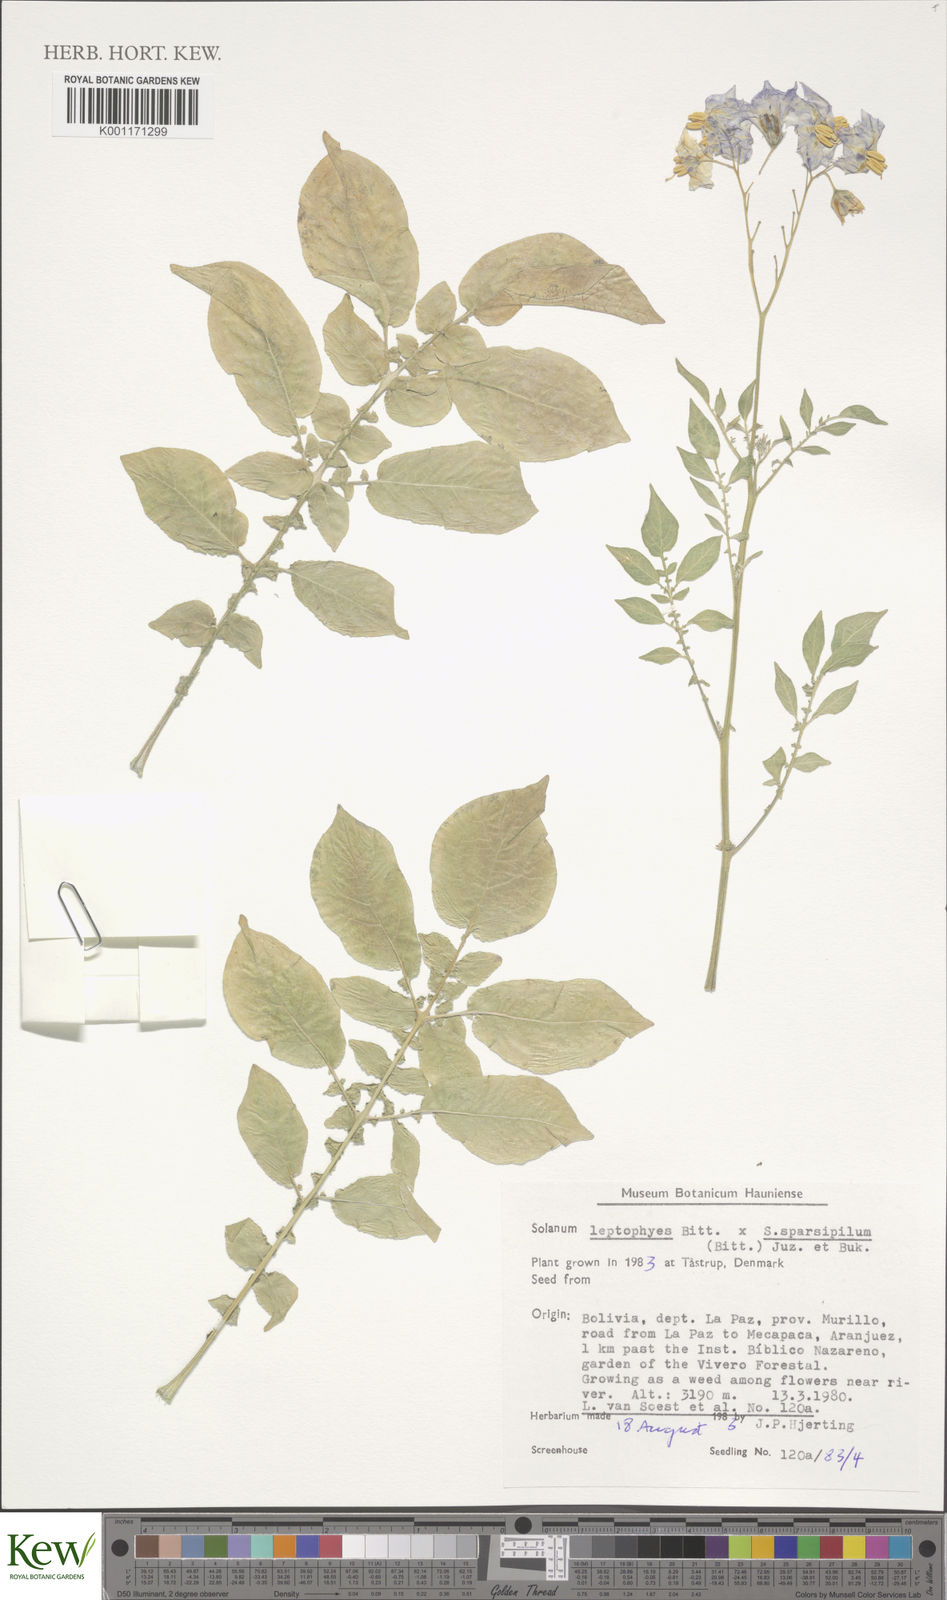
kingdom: Plantae
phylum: Tracheophyta
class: Magnoliopsida
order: Solanales
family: Solanaceae
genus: Solanum
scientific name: Solanum brevicaule
